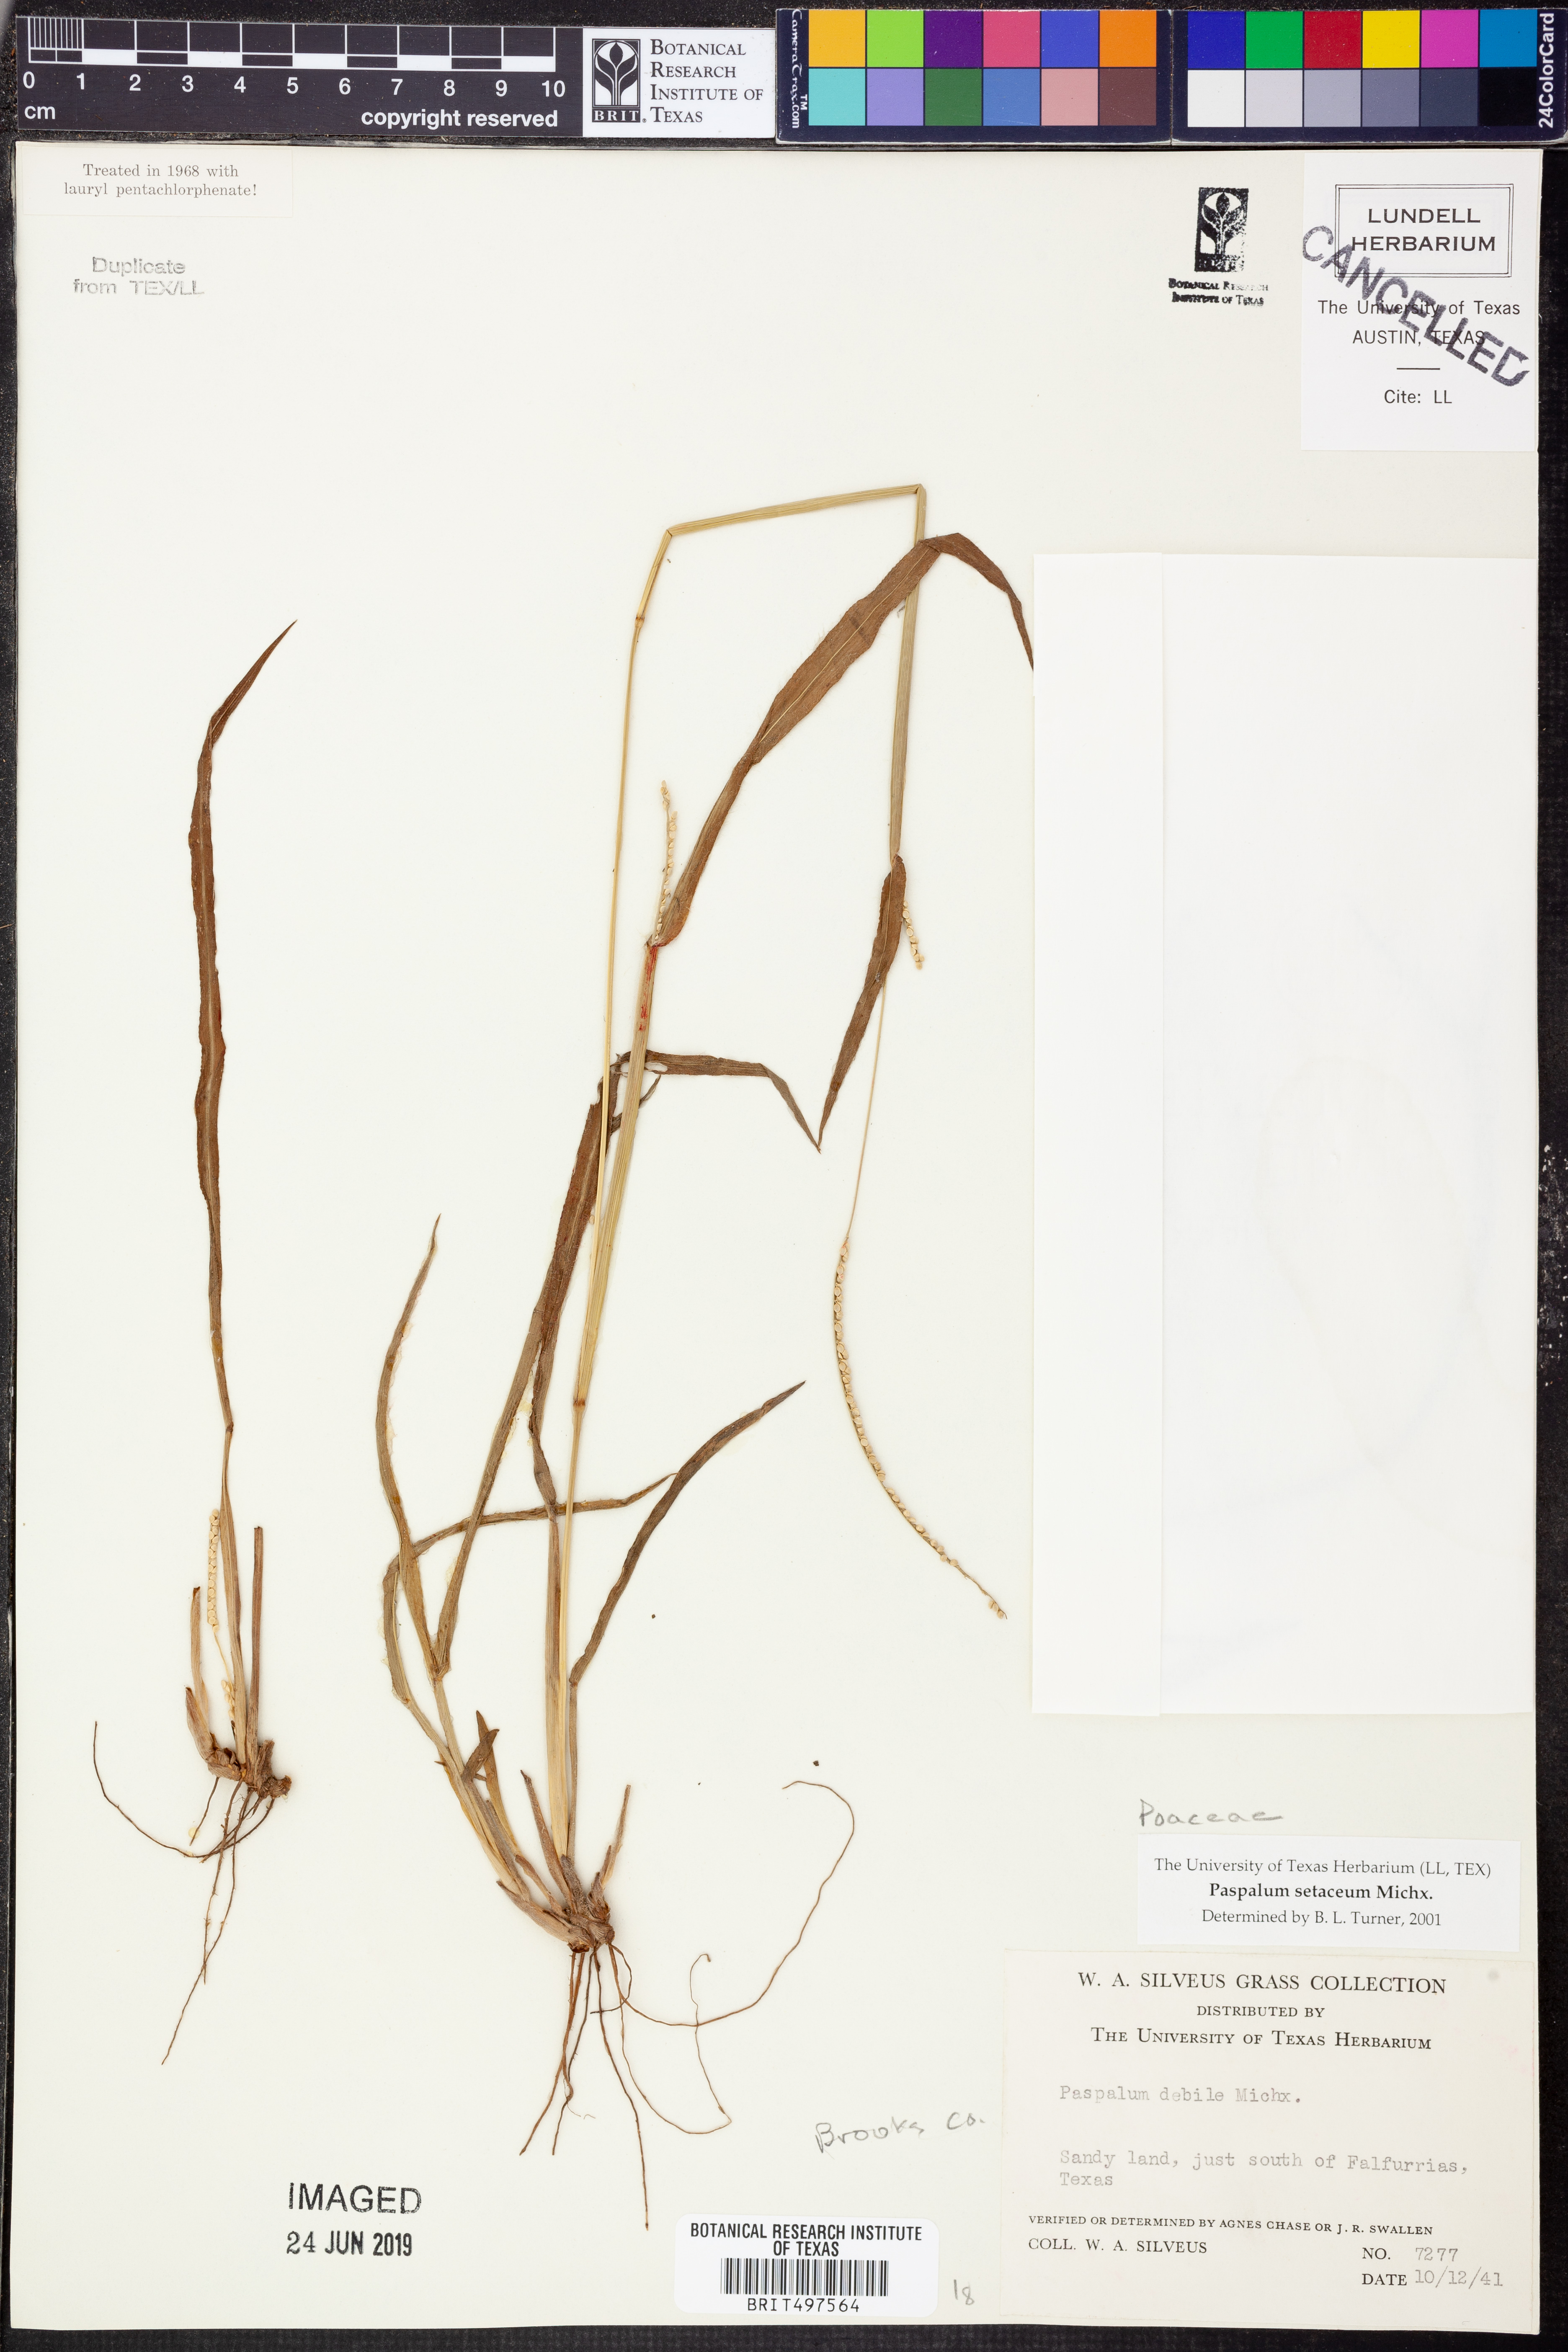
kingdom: Plantae
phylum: Tracheophyta
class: Liliopsida
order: Poales
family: Poaceae
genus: Paspalum
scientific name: Paspalum setaceum
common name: Slender paspalum
